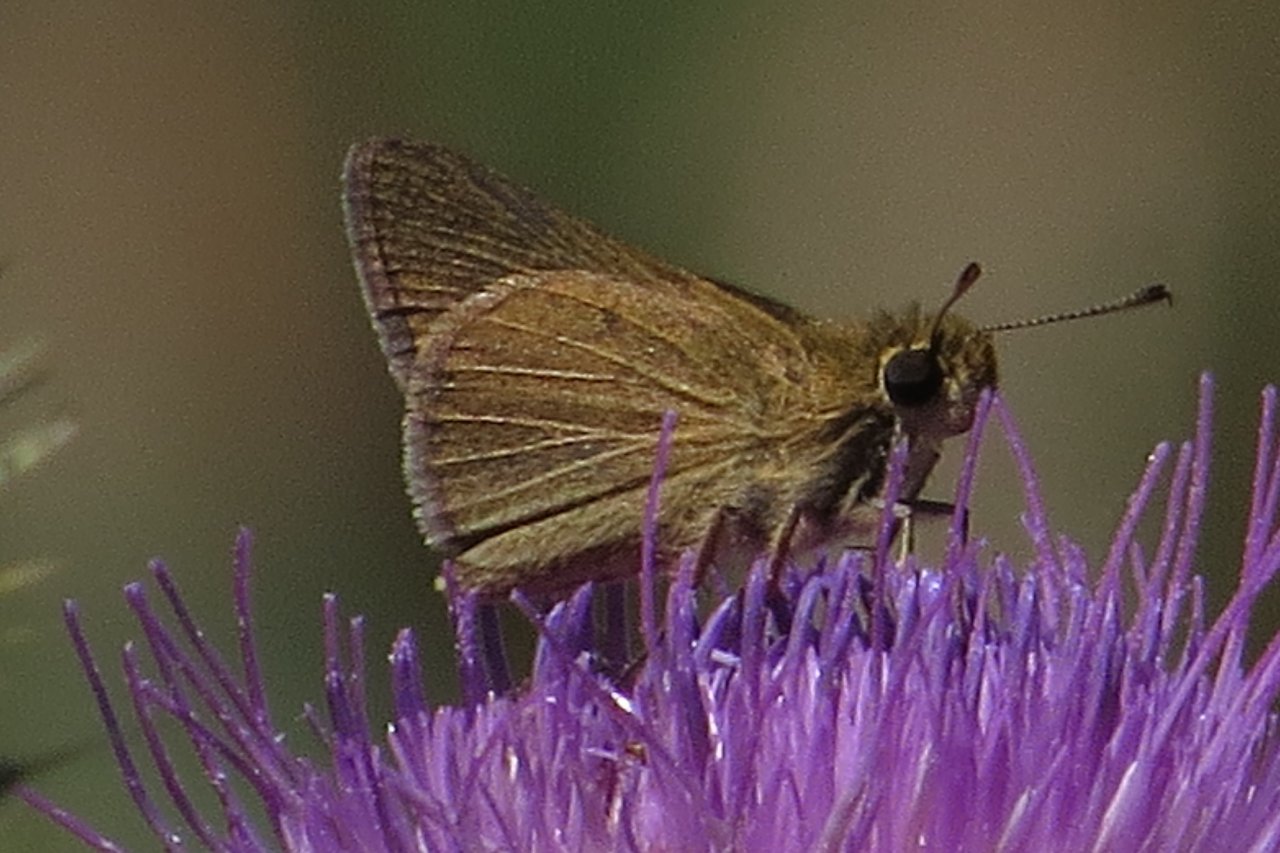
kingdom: Animalia
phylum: Arthropoda
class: Insecta
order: Lepidoptera
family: Hesperiidae
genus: Nastra
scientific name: Nastra lherminier
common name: Swarthy Skipper
